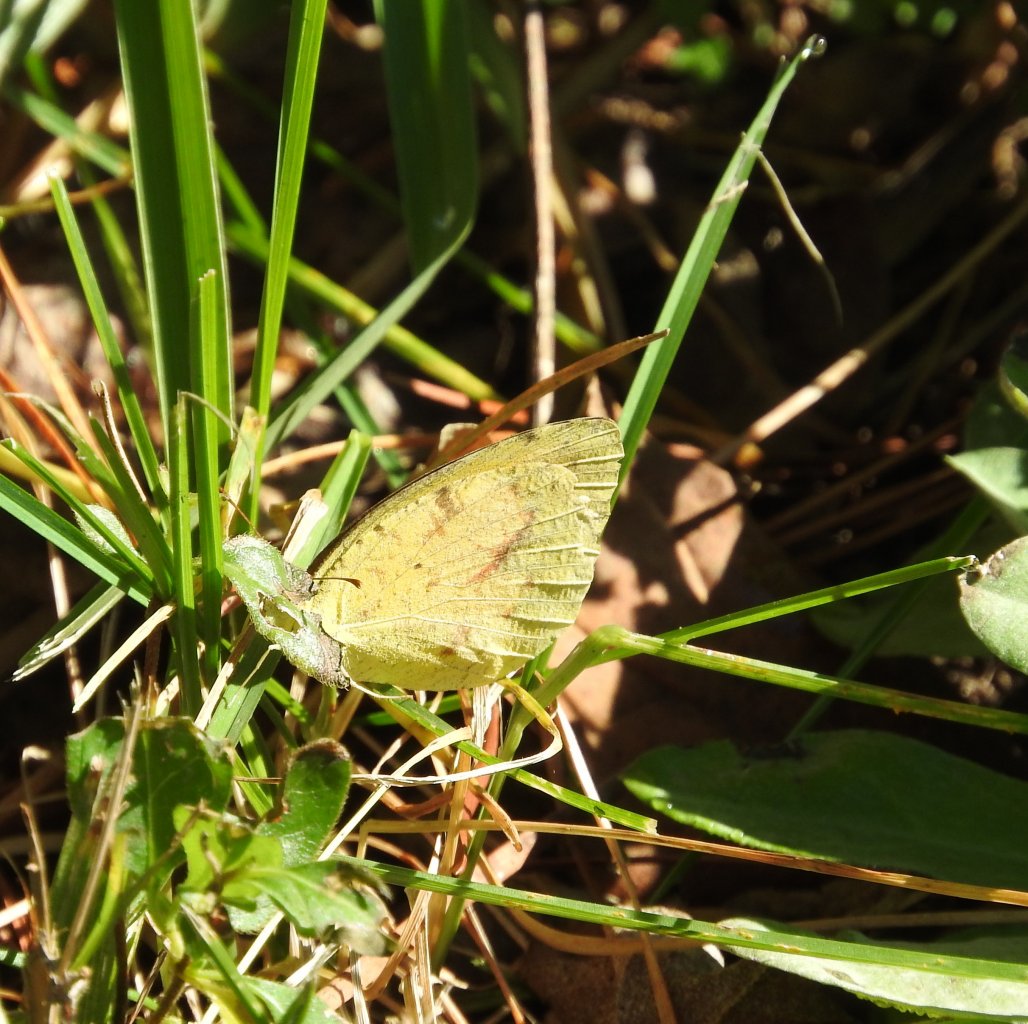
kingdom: Animalia
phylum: Arthropoda
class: Insecta
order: Lepidoptera
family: Pieridae
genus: Abaeis
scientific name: Abaeis nicippe
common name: Sleepy Orange
